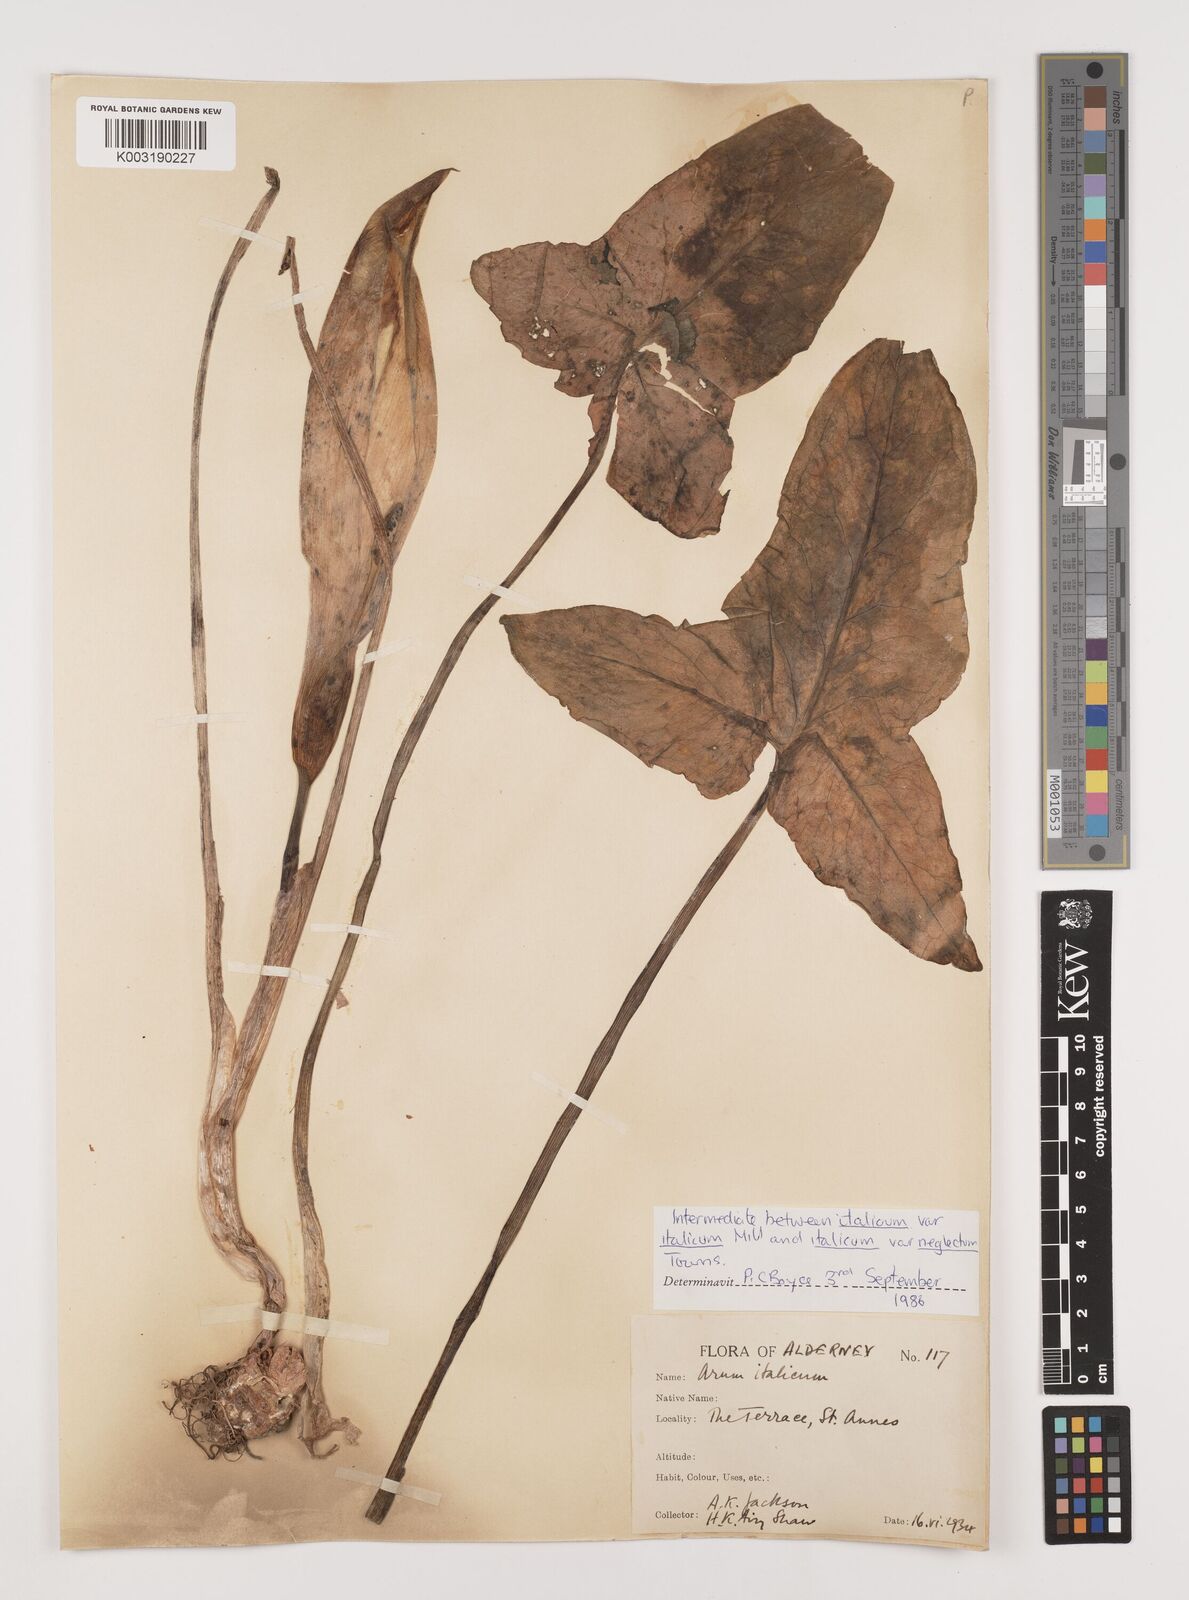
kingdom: Plantae
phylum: Tracheophyta
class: Liliopsida
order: Alismatales
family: Araceae
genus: Arum
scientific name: Arum italicum
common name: Italian lords-and-ladies
